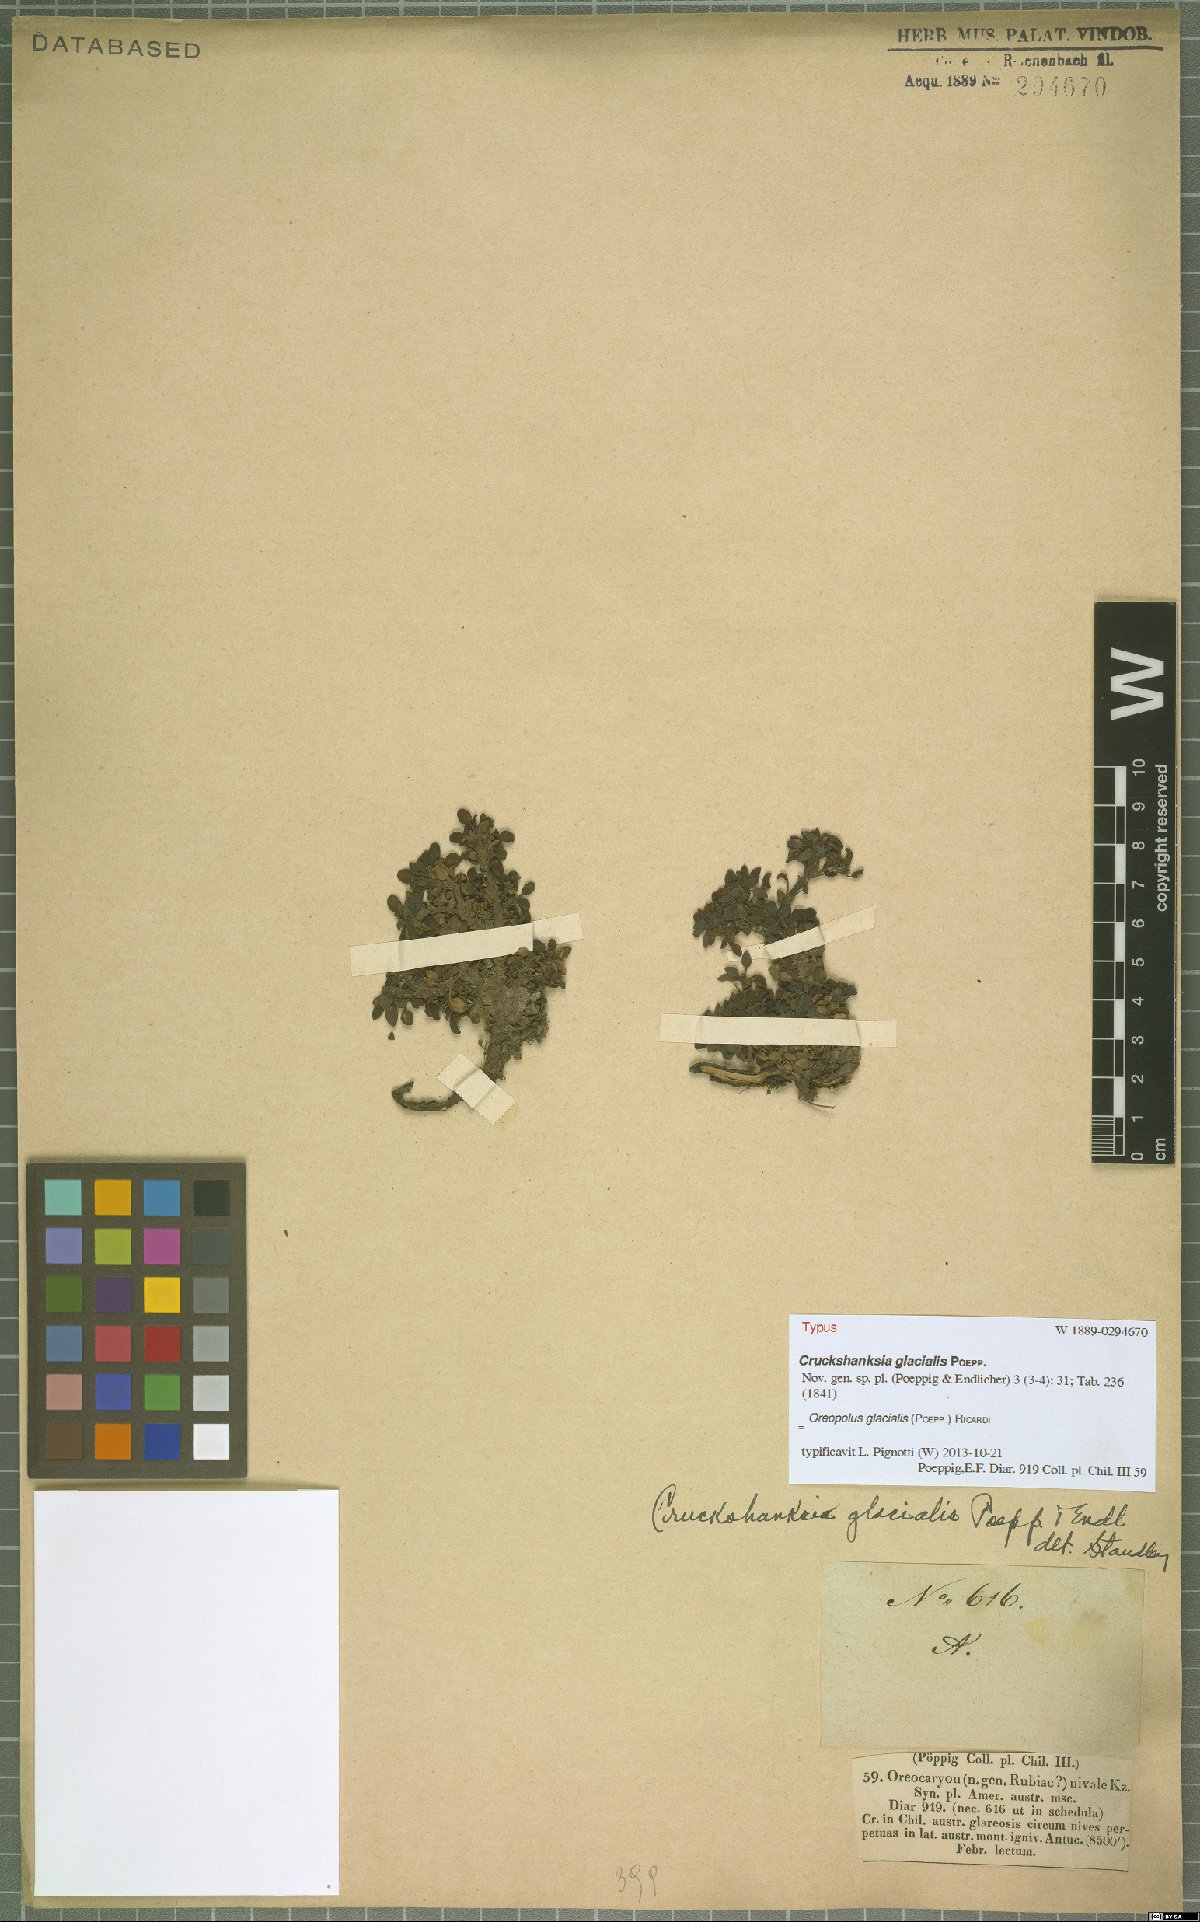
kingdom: Plantae
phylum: Tracheophyta
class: Magnoliopsida
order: Gentianales
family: Rubiaceae
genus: Oreopolus
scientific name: Oreopolus glacialis
